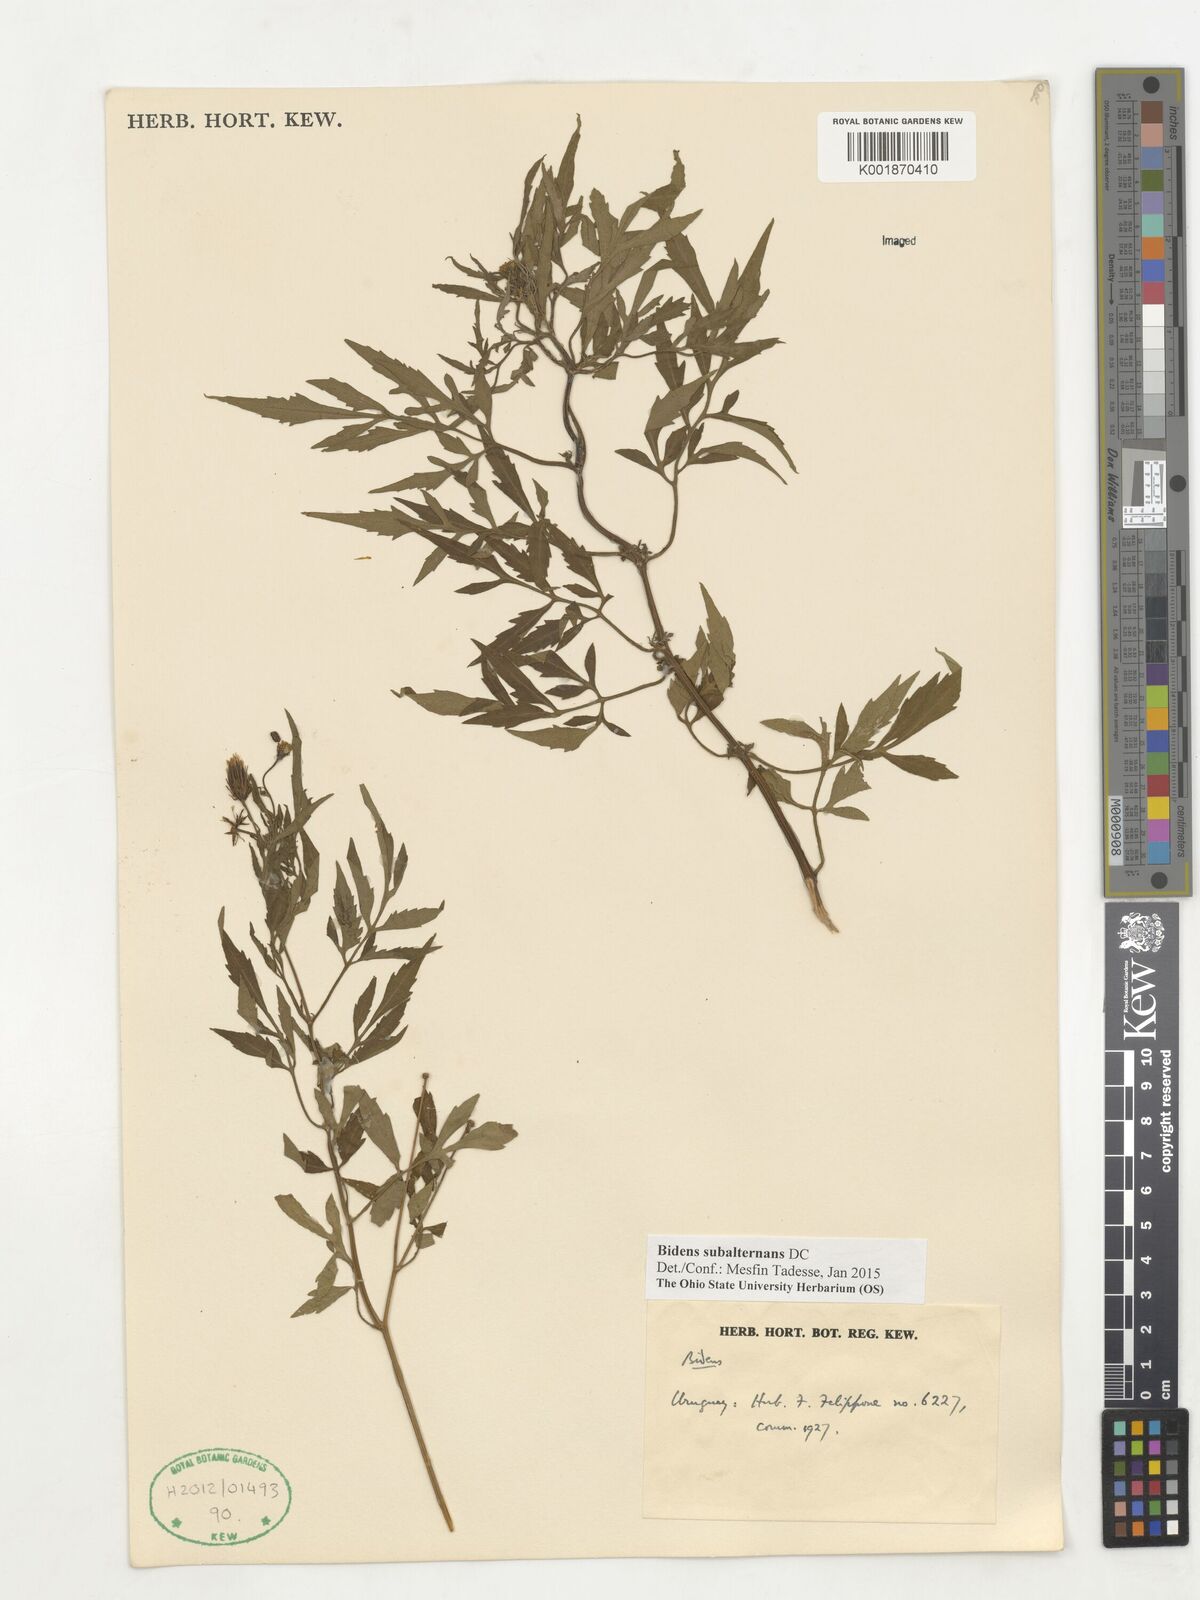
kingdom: Plantae
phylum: Tracheophyta
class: Magnoliopsida
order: Asterales
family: Asteraceae
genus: Bidens
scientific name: Bidens subalternans
